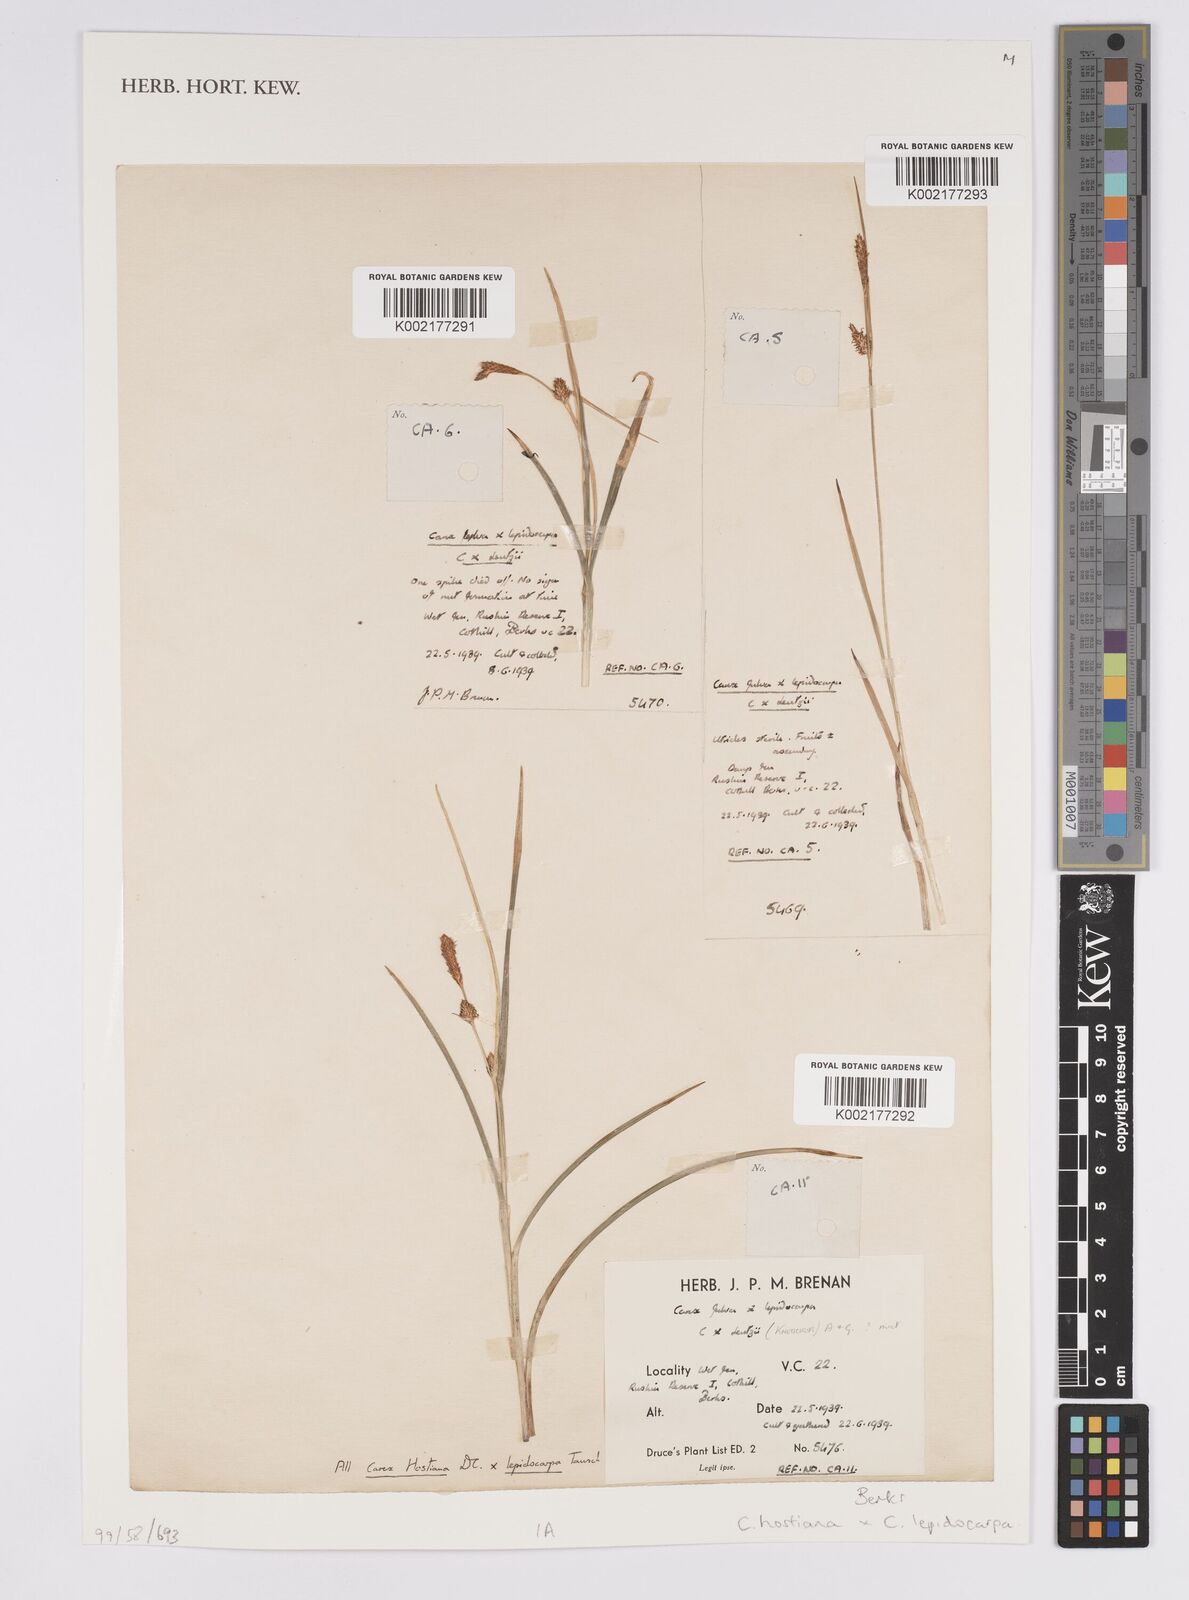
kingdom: Plantae
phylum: Tracheophyta
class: Liliopsida
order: Poales
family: Cyperaceae
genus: Carex
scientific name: Carex hostiana
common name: Tawny sedge
